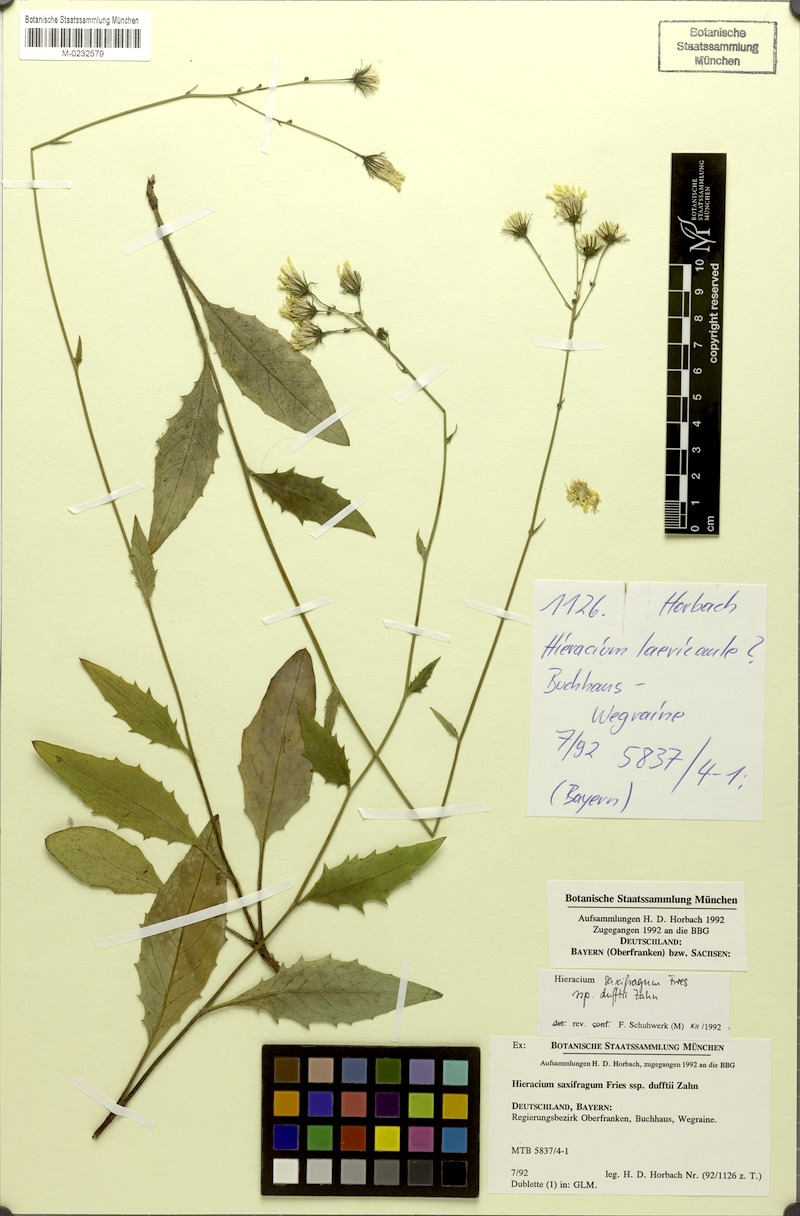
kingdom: Plantae
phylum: Tracheophyta
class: Magnoliopsida
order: Asterales
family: Asteraceae
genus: Hieracium
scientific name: Hieracium saxifragum
